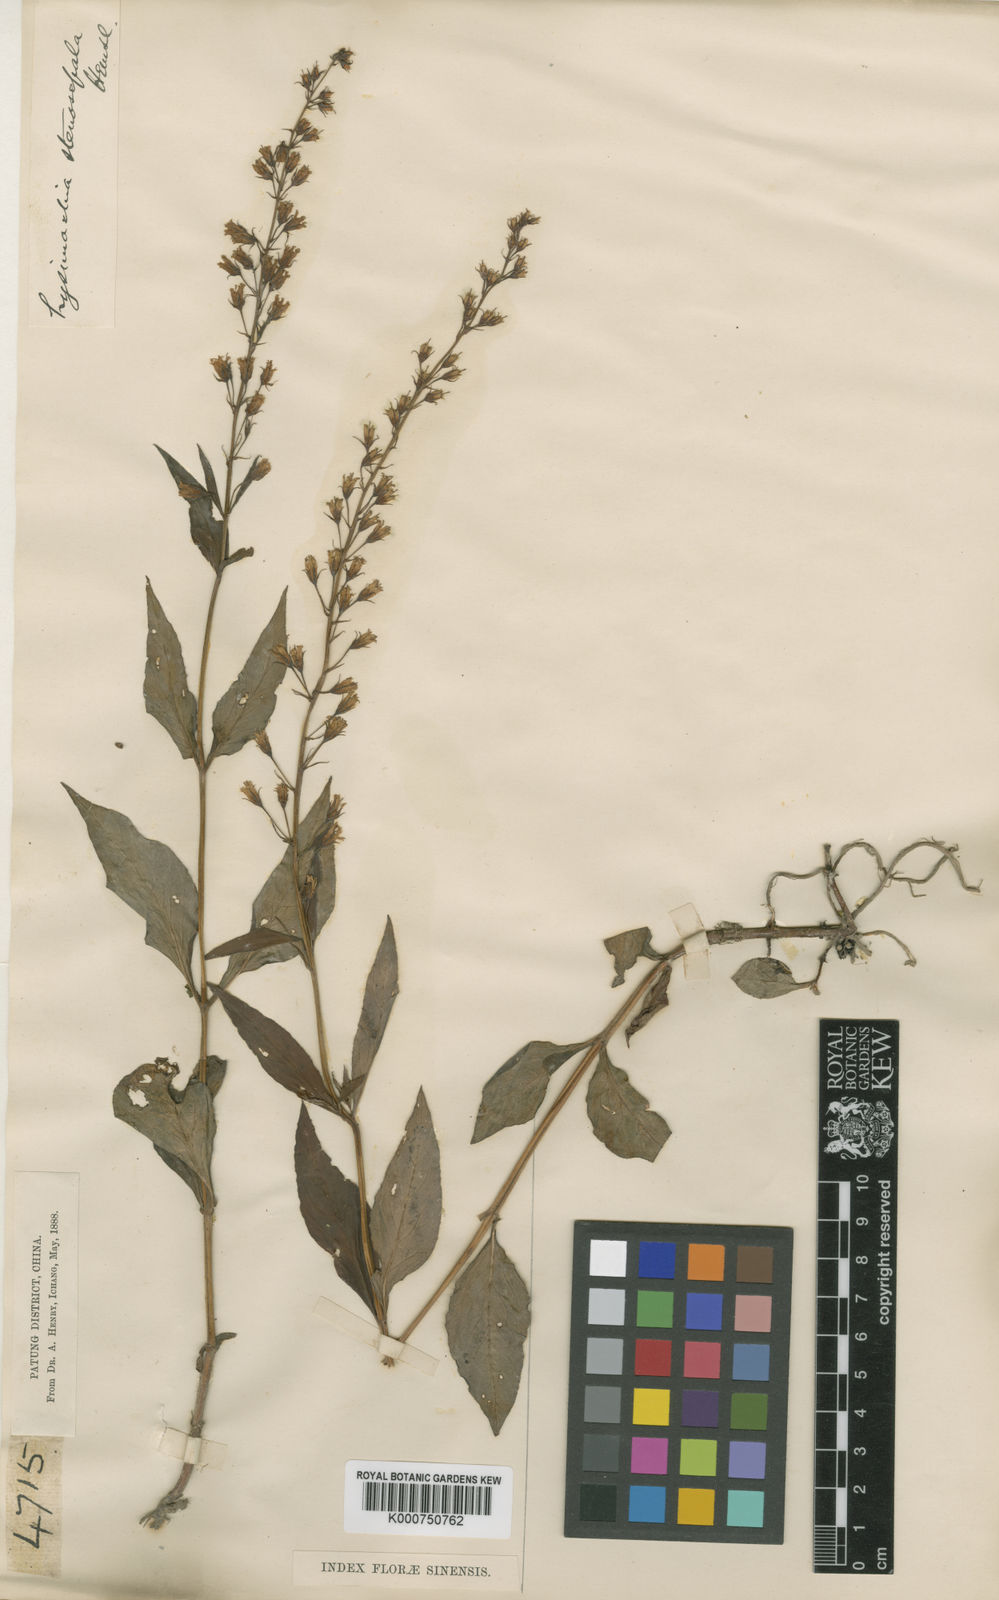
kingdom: Plantae
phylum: Tracheophyta
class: Magnoliopsida
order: Ericales
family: Primulaceae
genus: Lysimachia
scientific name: Lysimachia stenosepala
